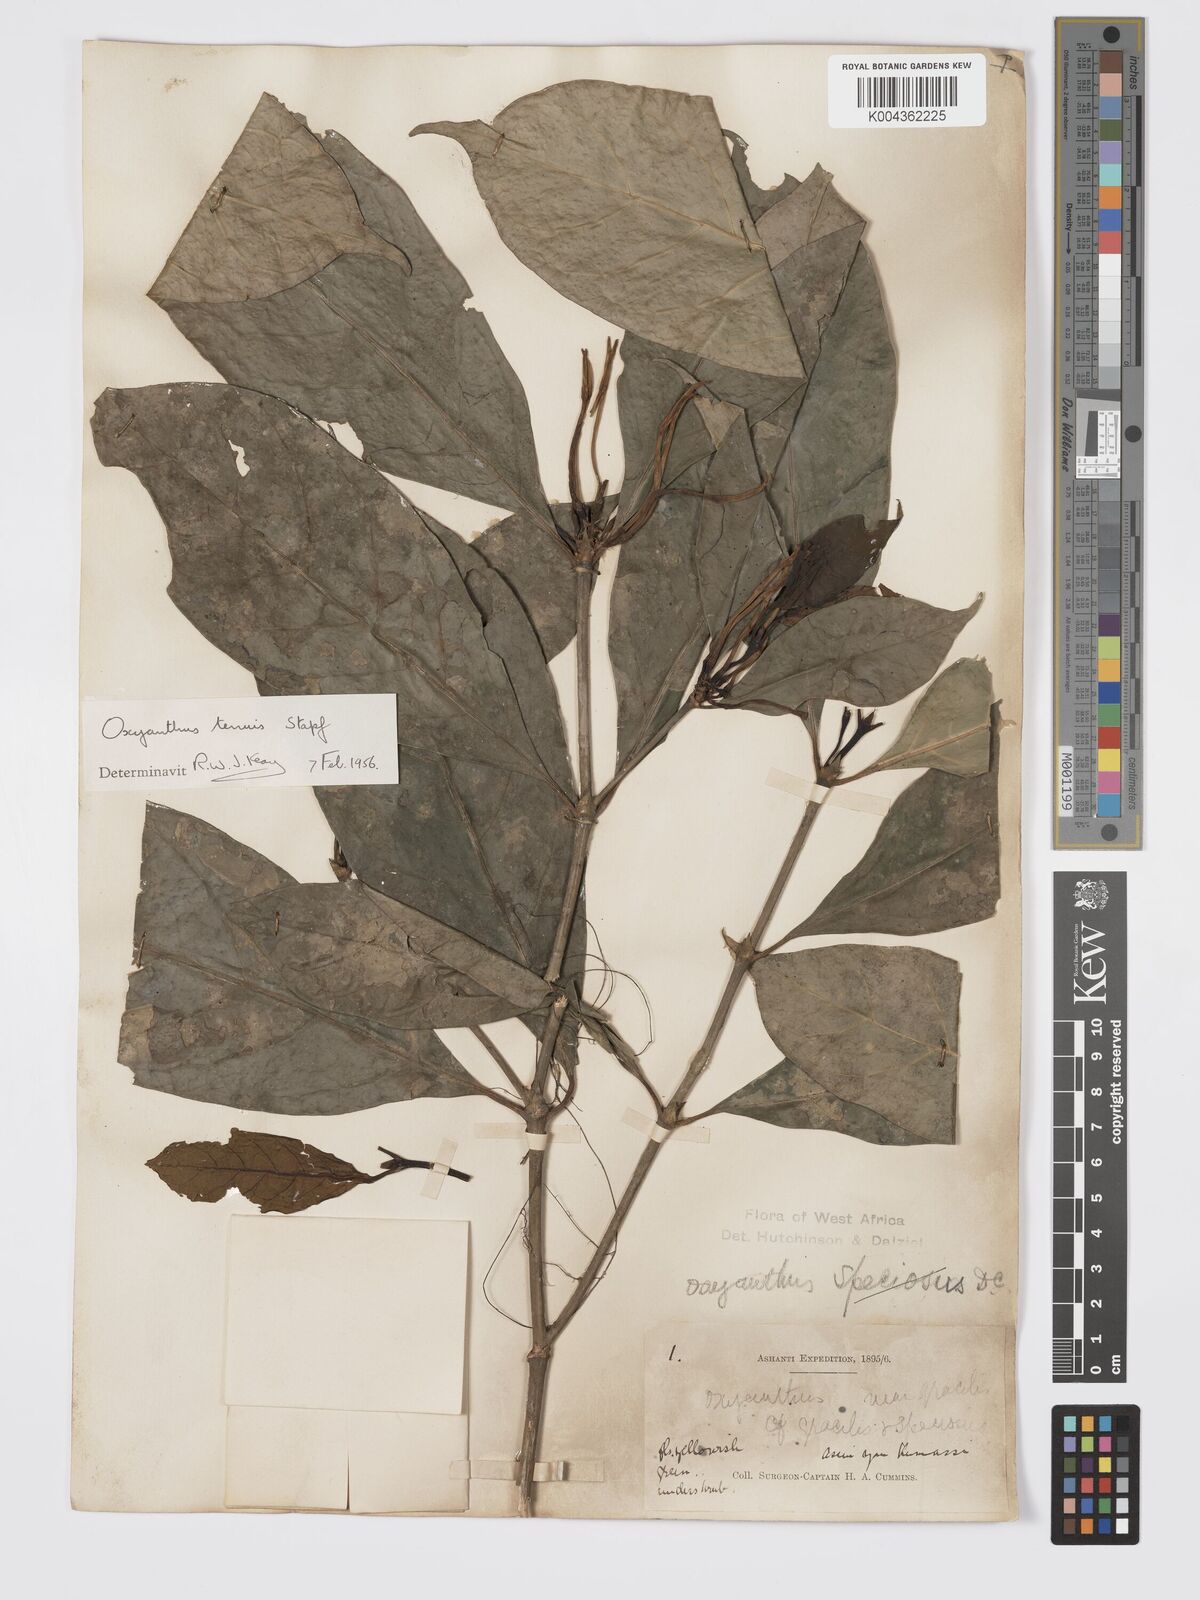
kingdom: Plantae
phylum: Tracheophyta
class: Magnoliopsida
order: Gentianales
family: Rubiaceae
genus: Oxyanthus
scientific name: Oxyanthus subpunctatus
